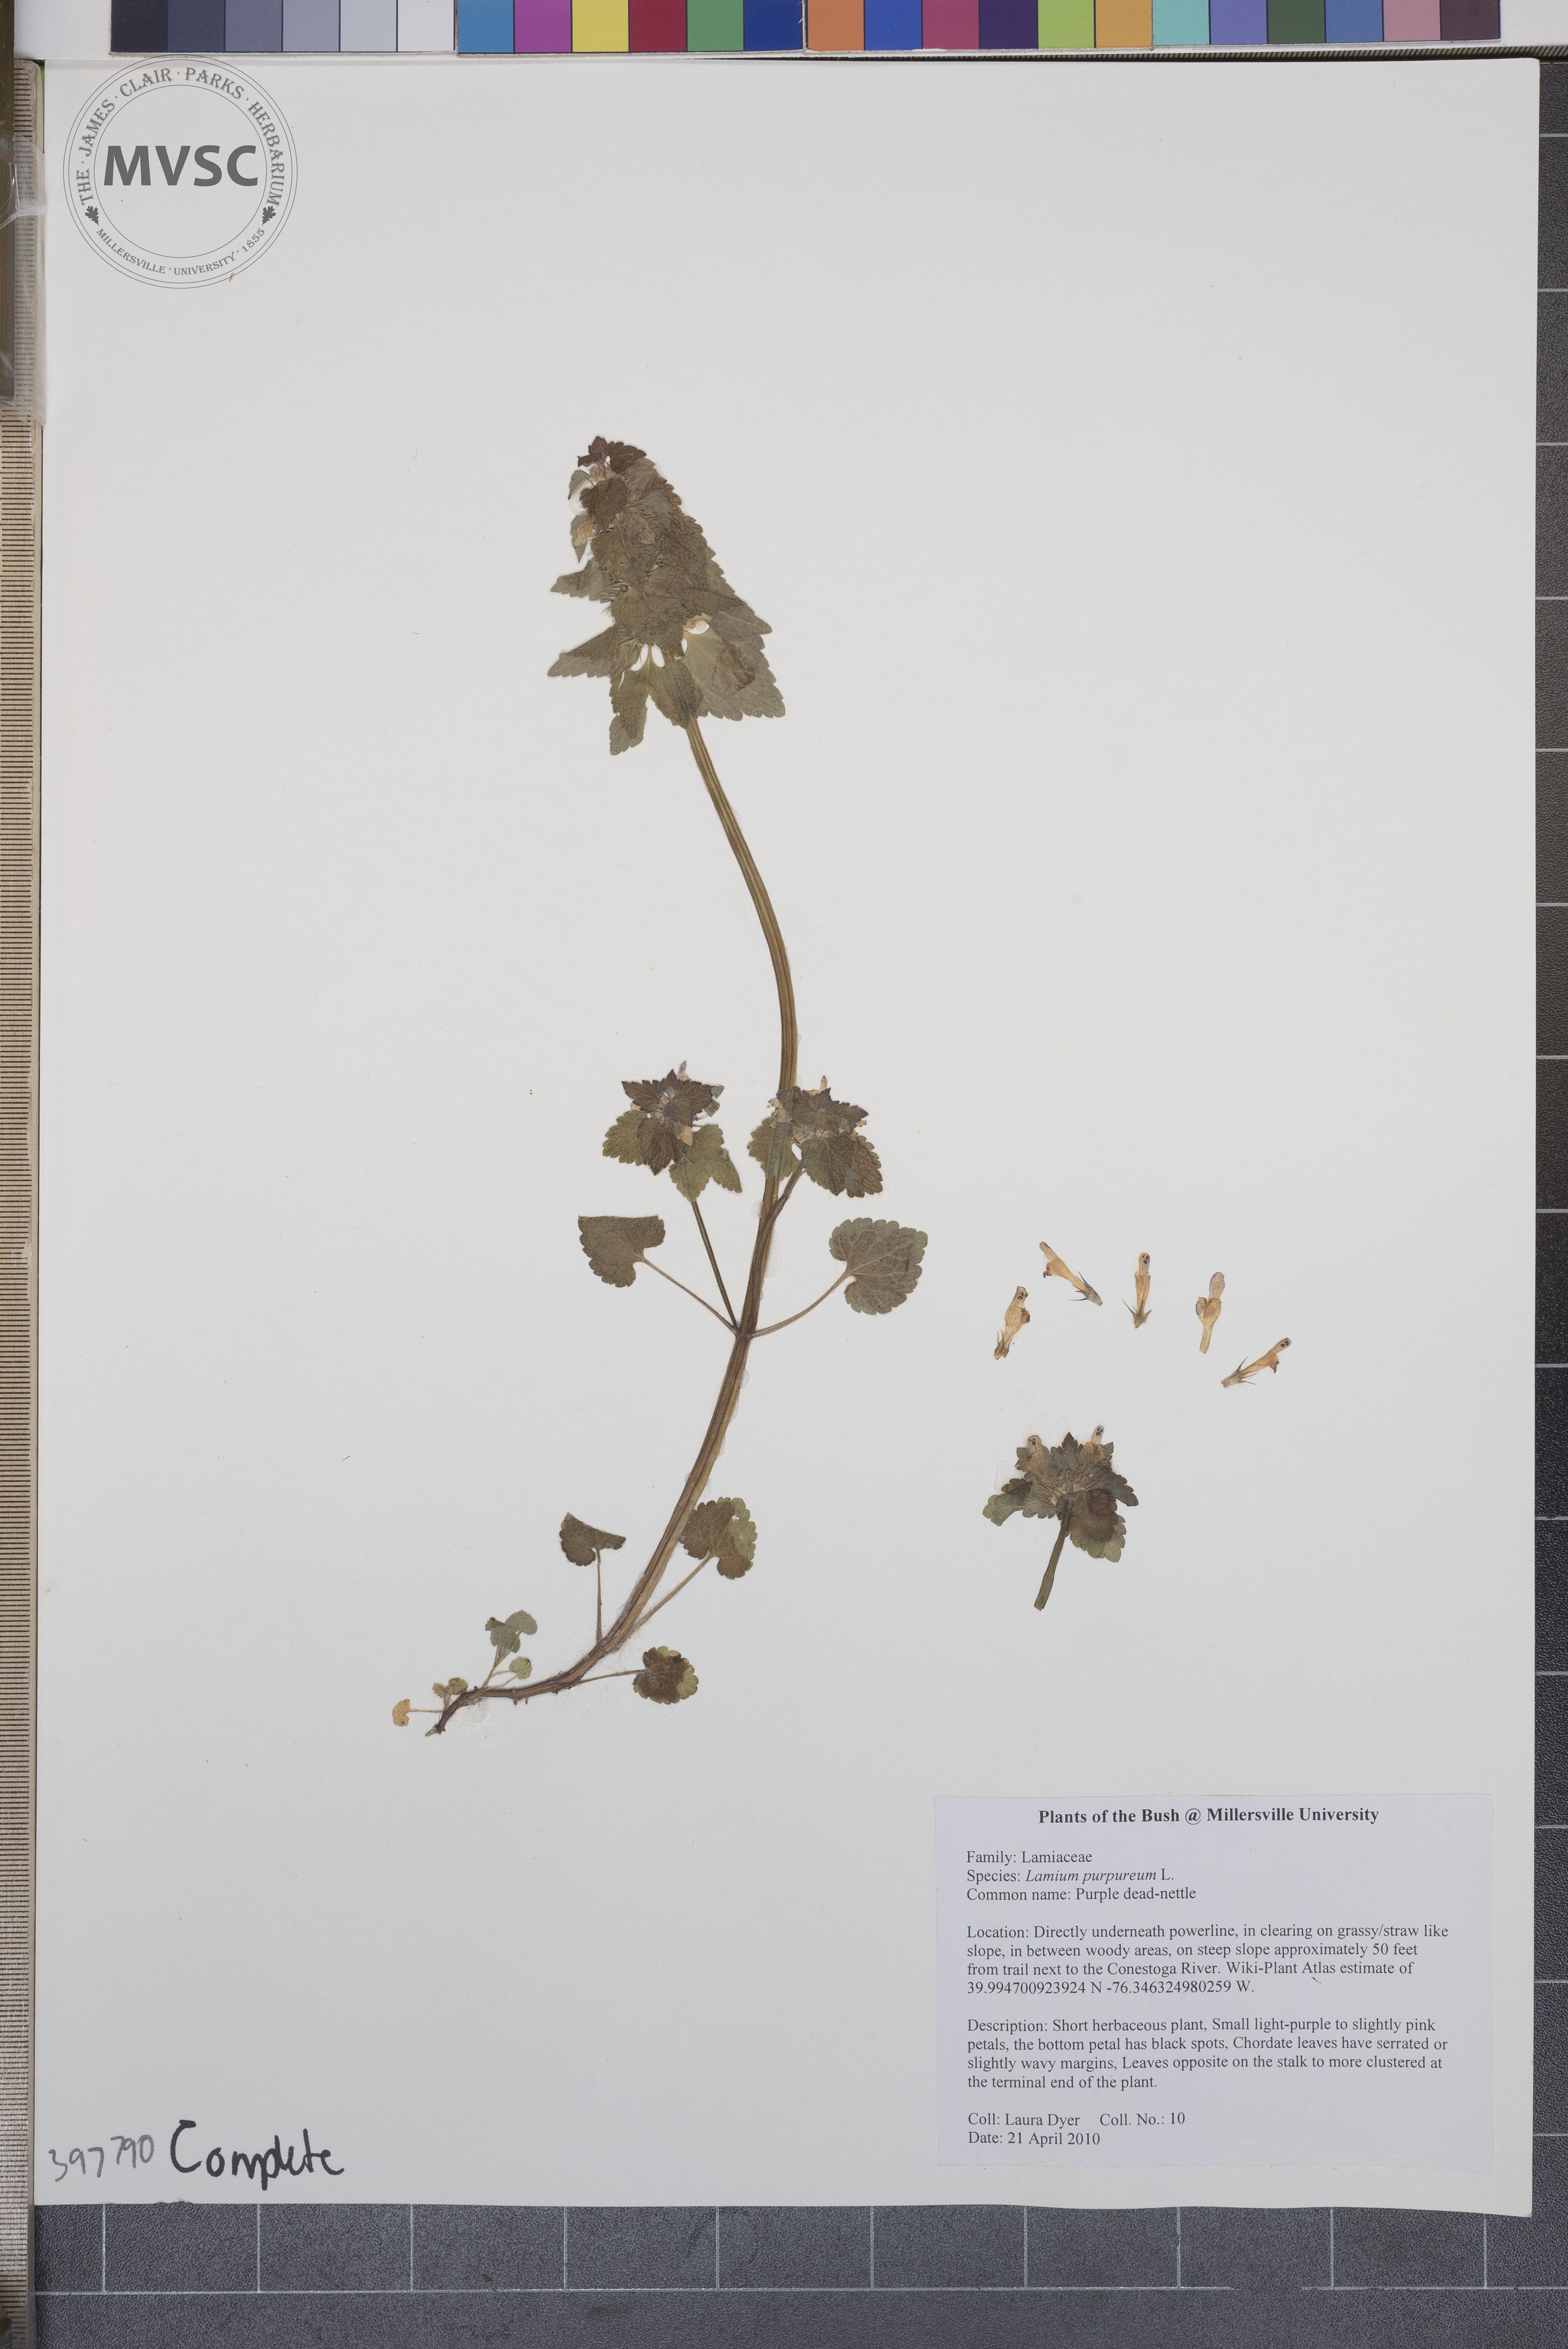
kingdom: Plantae
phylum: Tracheophyta
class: Magnoliopsida
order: Lamiales
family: Lamiaceae
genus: Lamium
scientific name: Lamium purpureum
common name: Purple dead-nettle
